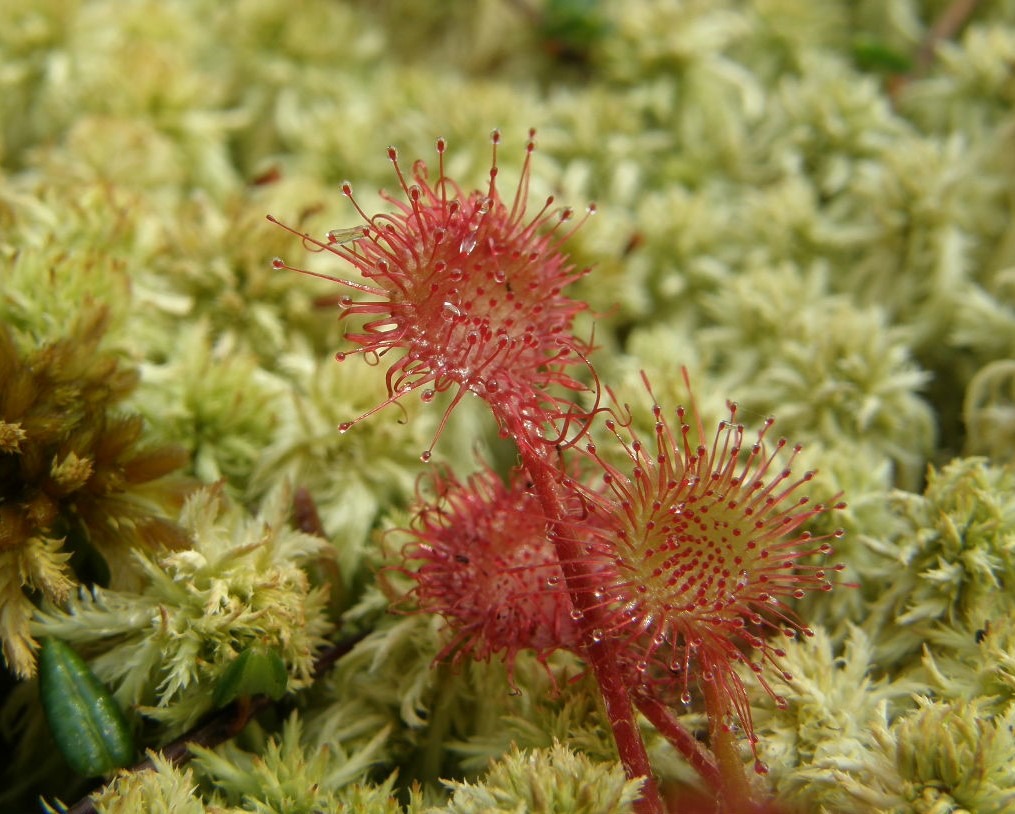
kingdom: Plantae
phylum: Tracheophyta
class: Magnoliopsida
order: Caryophyllales
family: Droseraceae
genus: Drosera
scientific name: Drosera rotundifolia
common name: Rundbladet soldug
